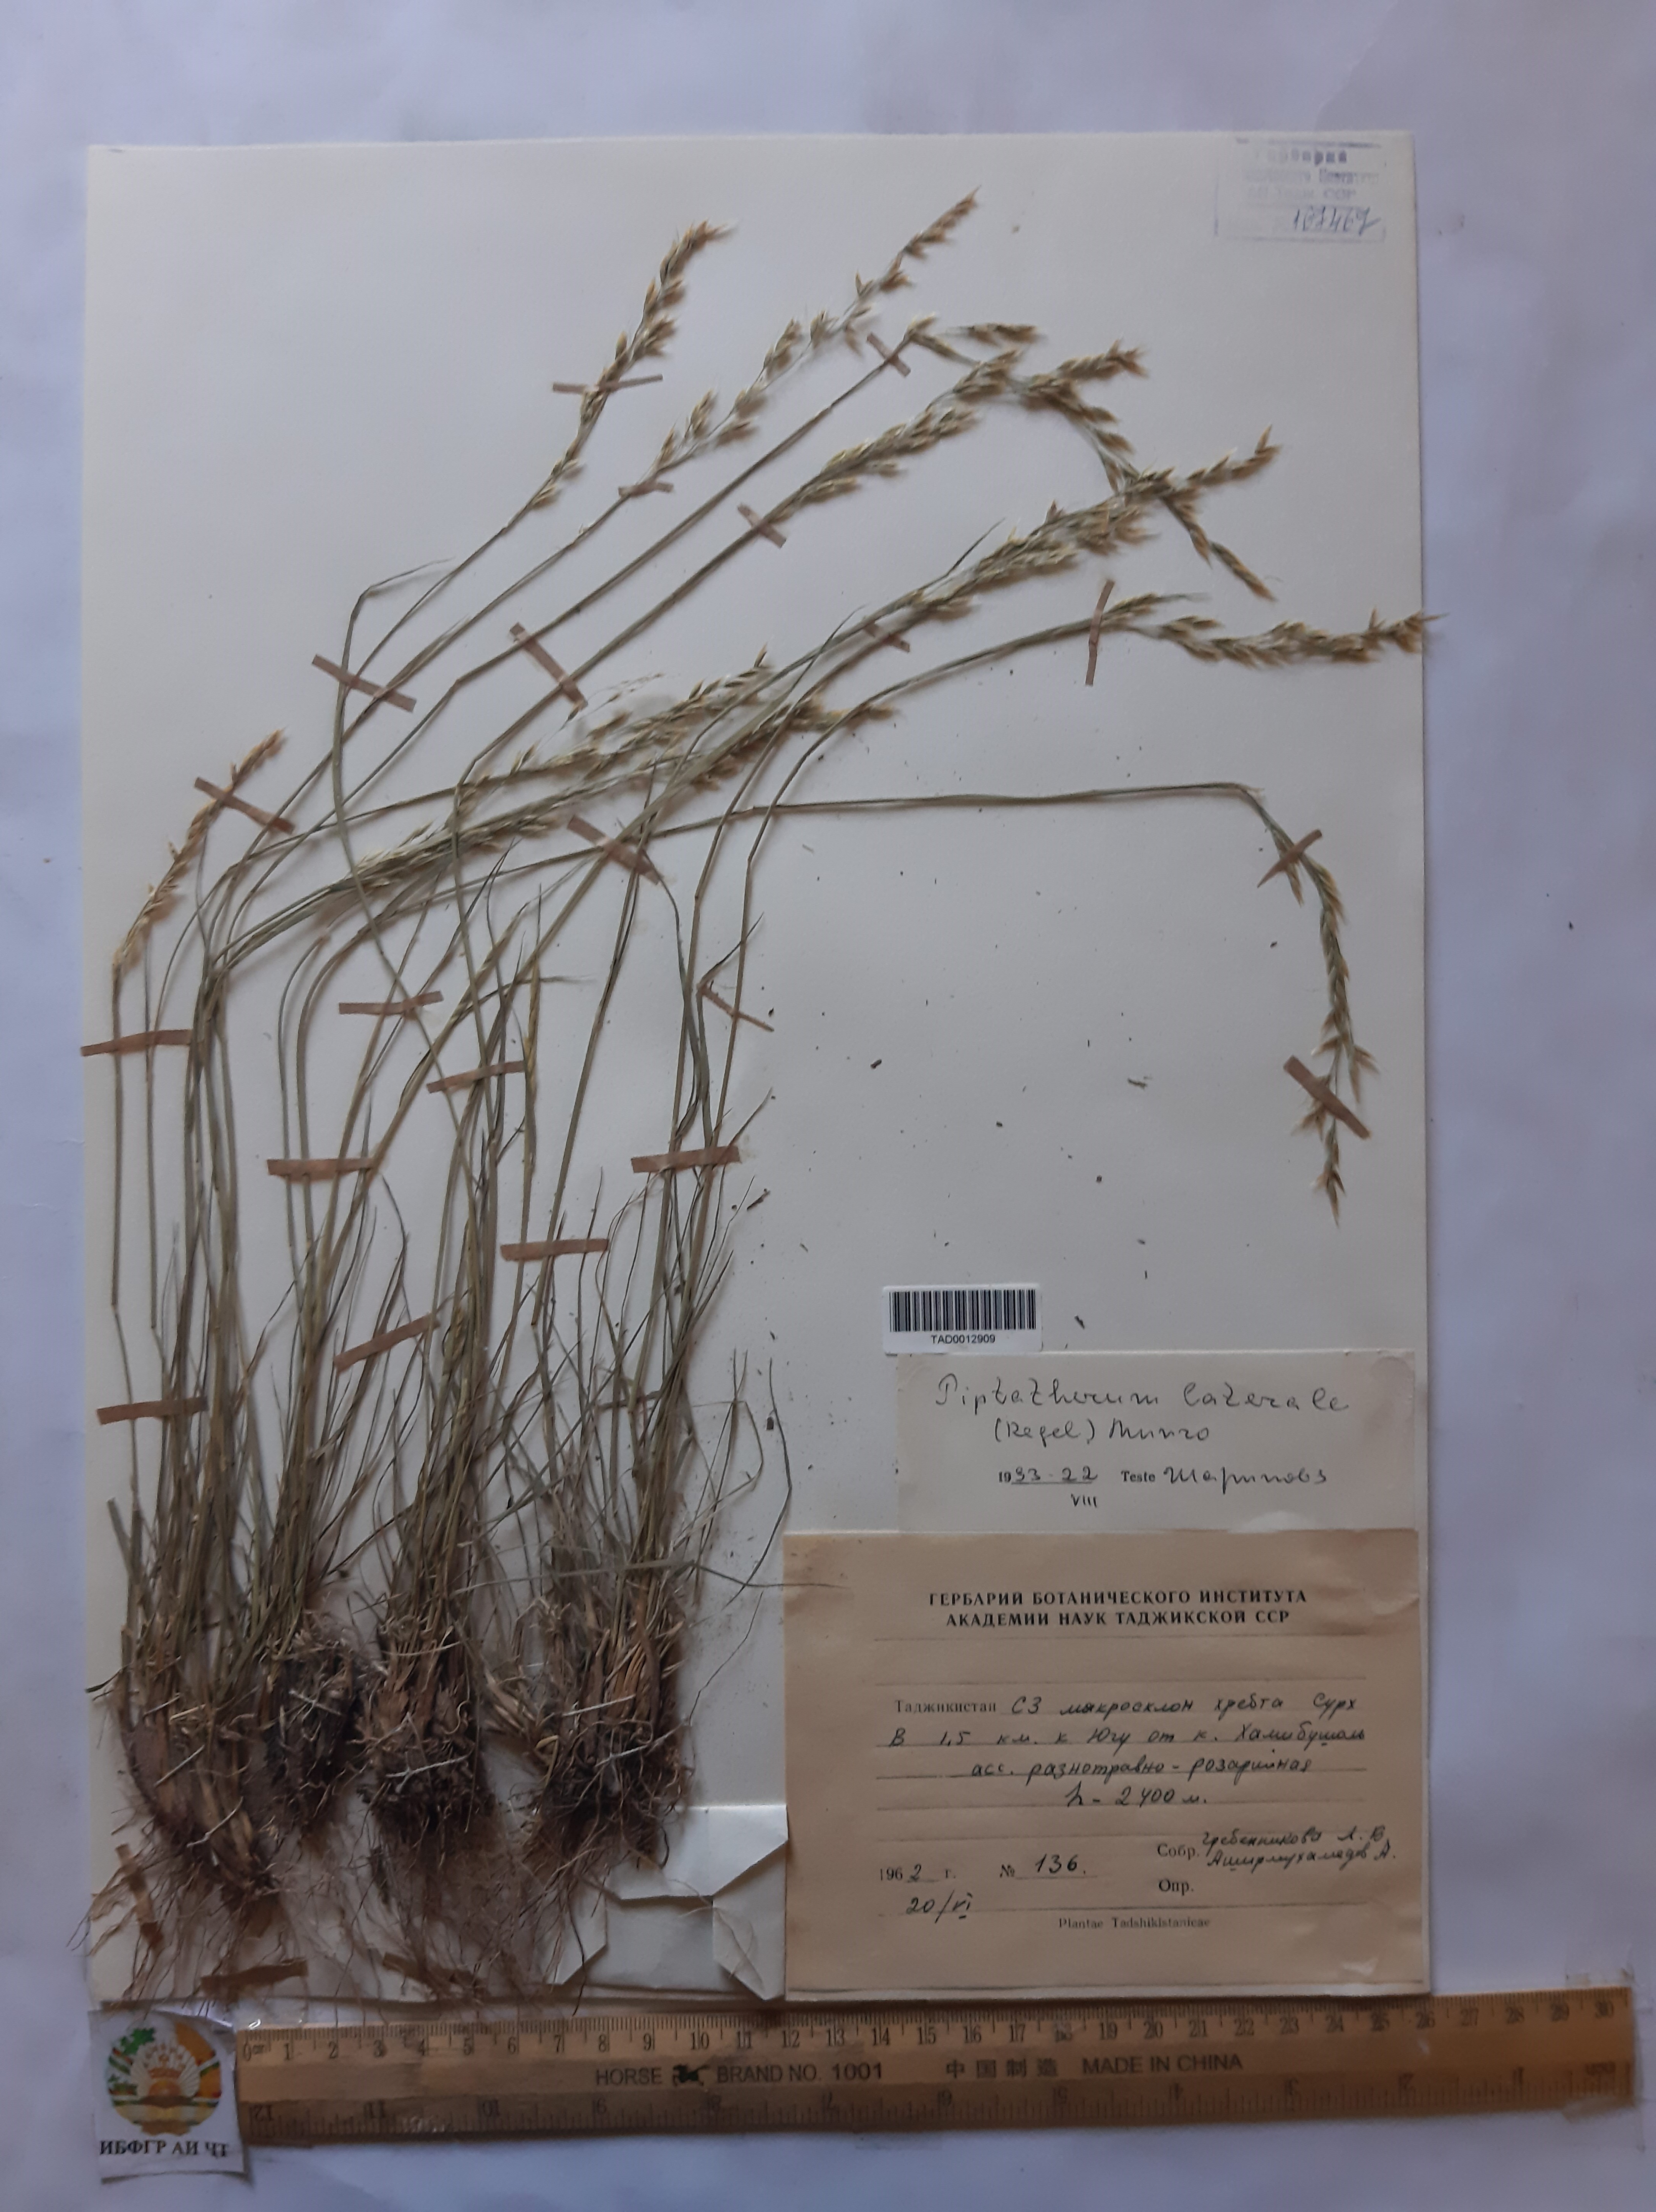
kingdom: Plantae
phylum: Tracheophyta
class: Liliopsida
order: Poales
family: Poaceae
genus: Piptatherum
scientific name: Piptatherum laterale
